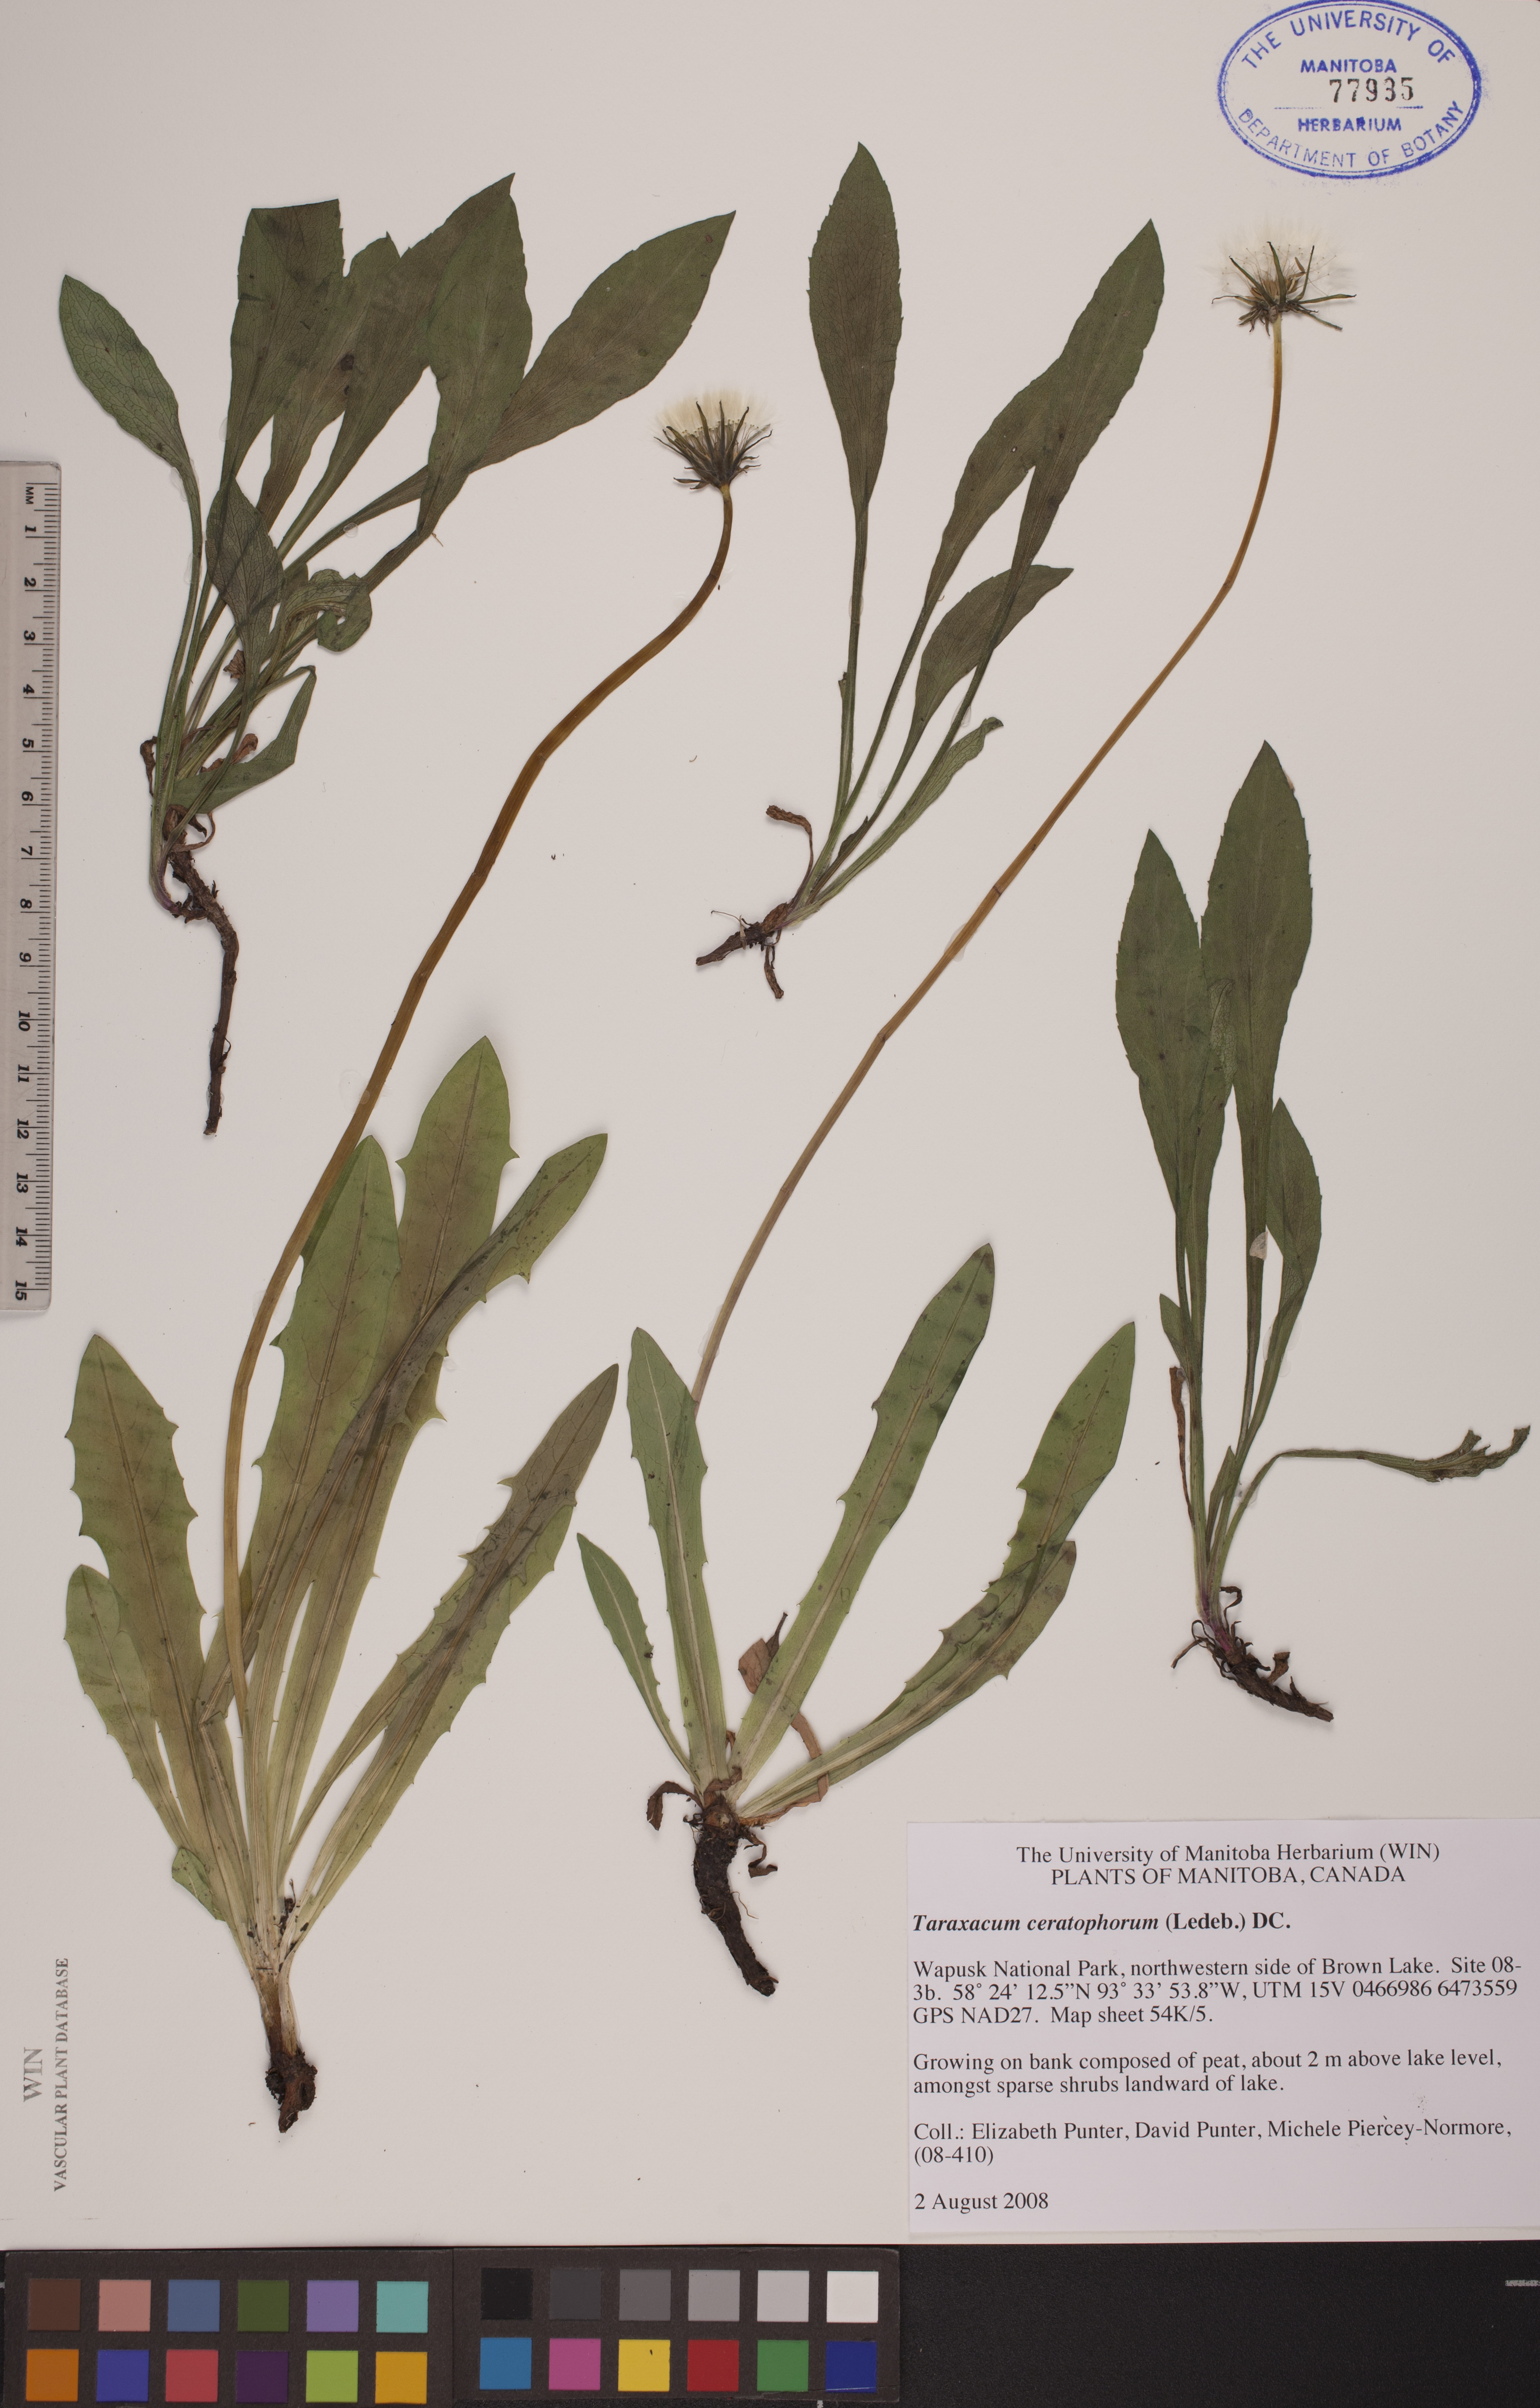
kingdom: Plantae
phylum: Tracheophyta
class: Magnoliopsida
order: Asterales
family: Asteraceae
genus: Taraxacum
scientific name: Taraxacum ceratophorum
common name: Horn-bearing dandelion
